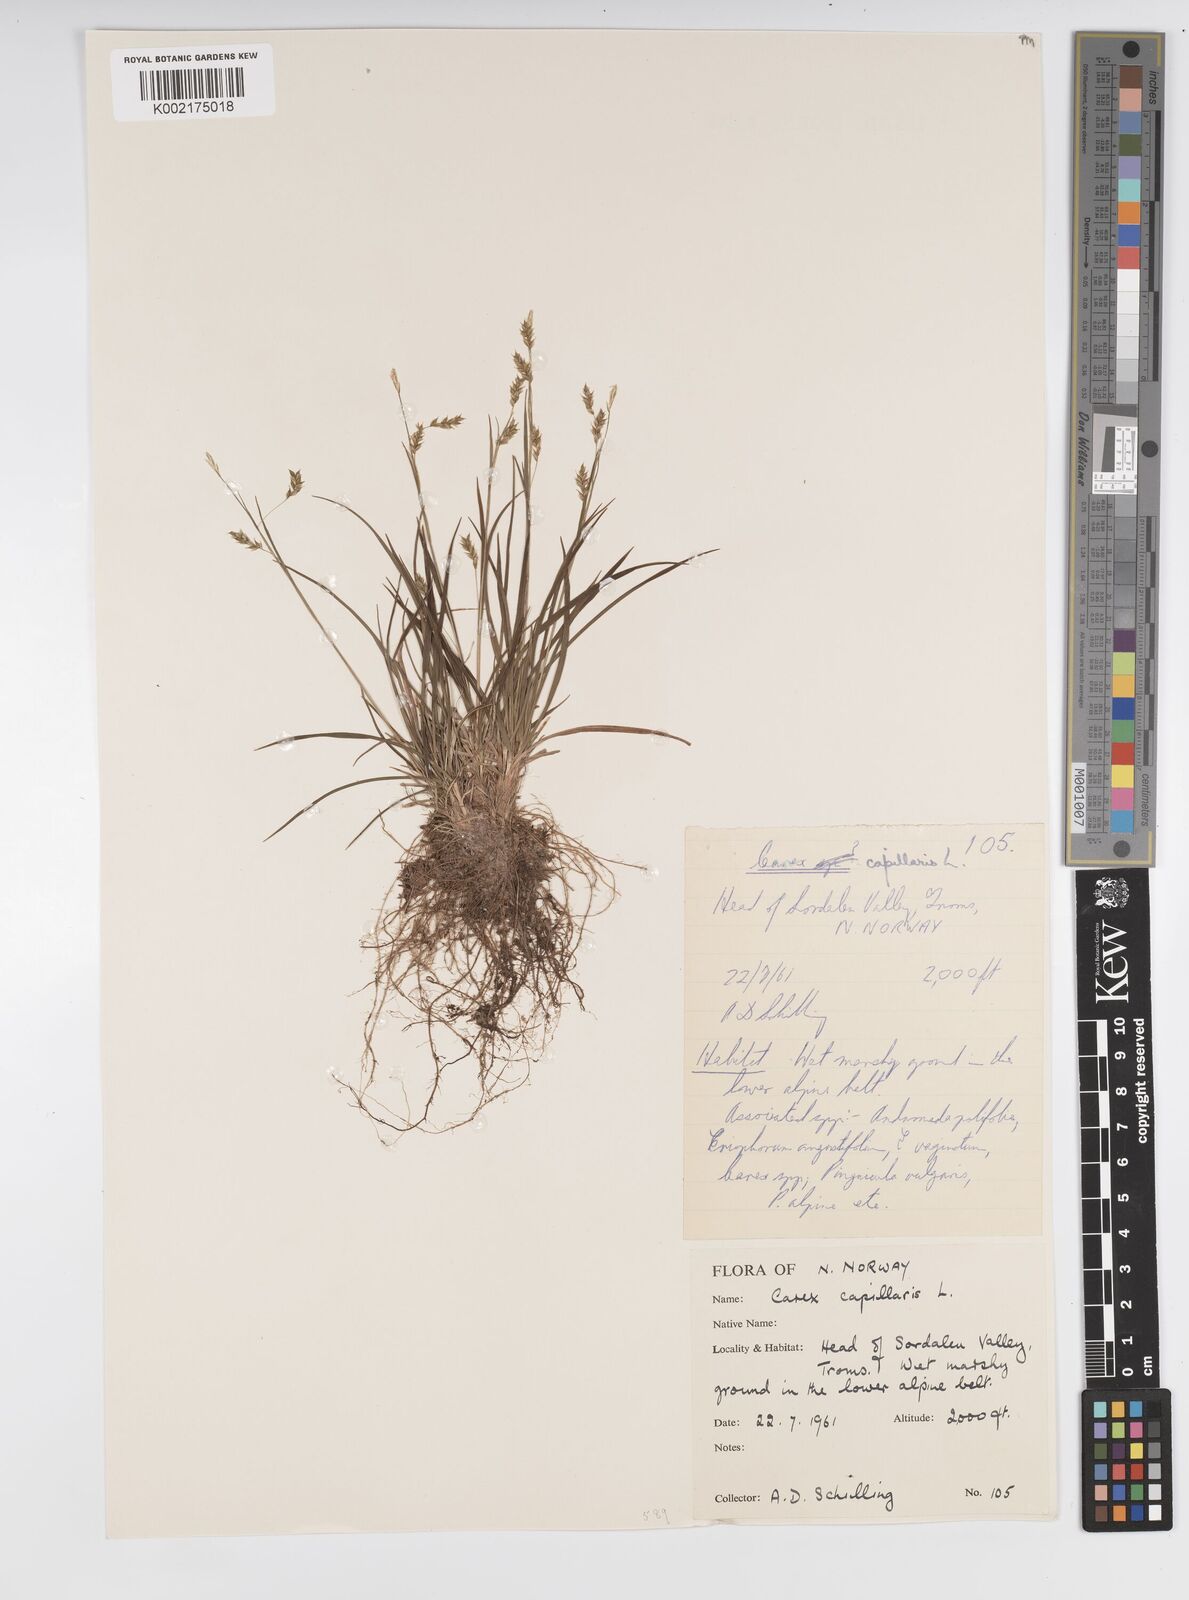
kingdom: Plantae
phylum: Tracheophyta
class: Liliopsida
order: Poales
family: Cyperaceae
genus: Carex
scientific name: Carex capillaris
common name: Hair sedge
